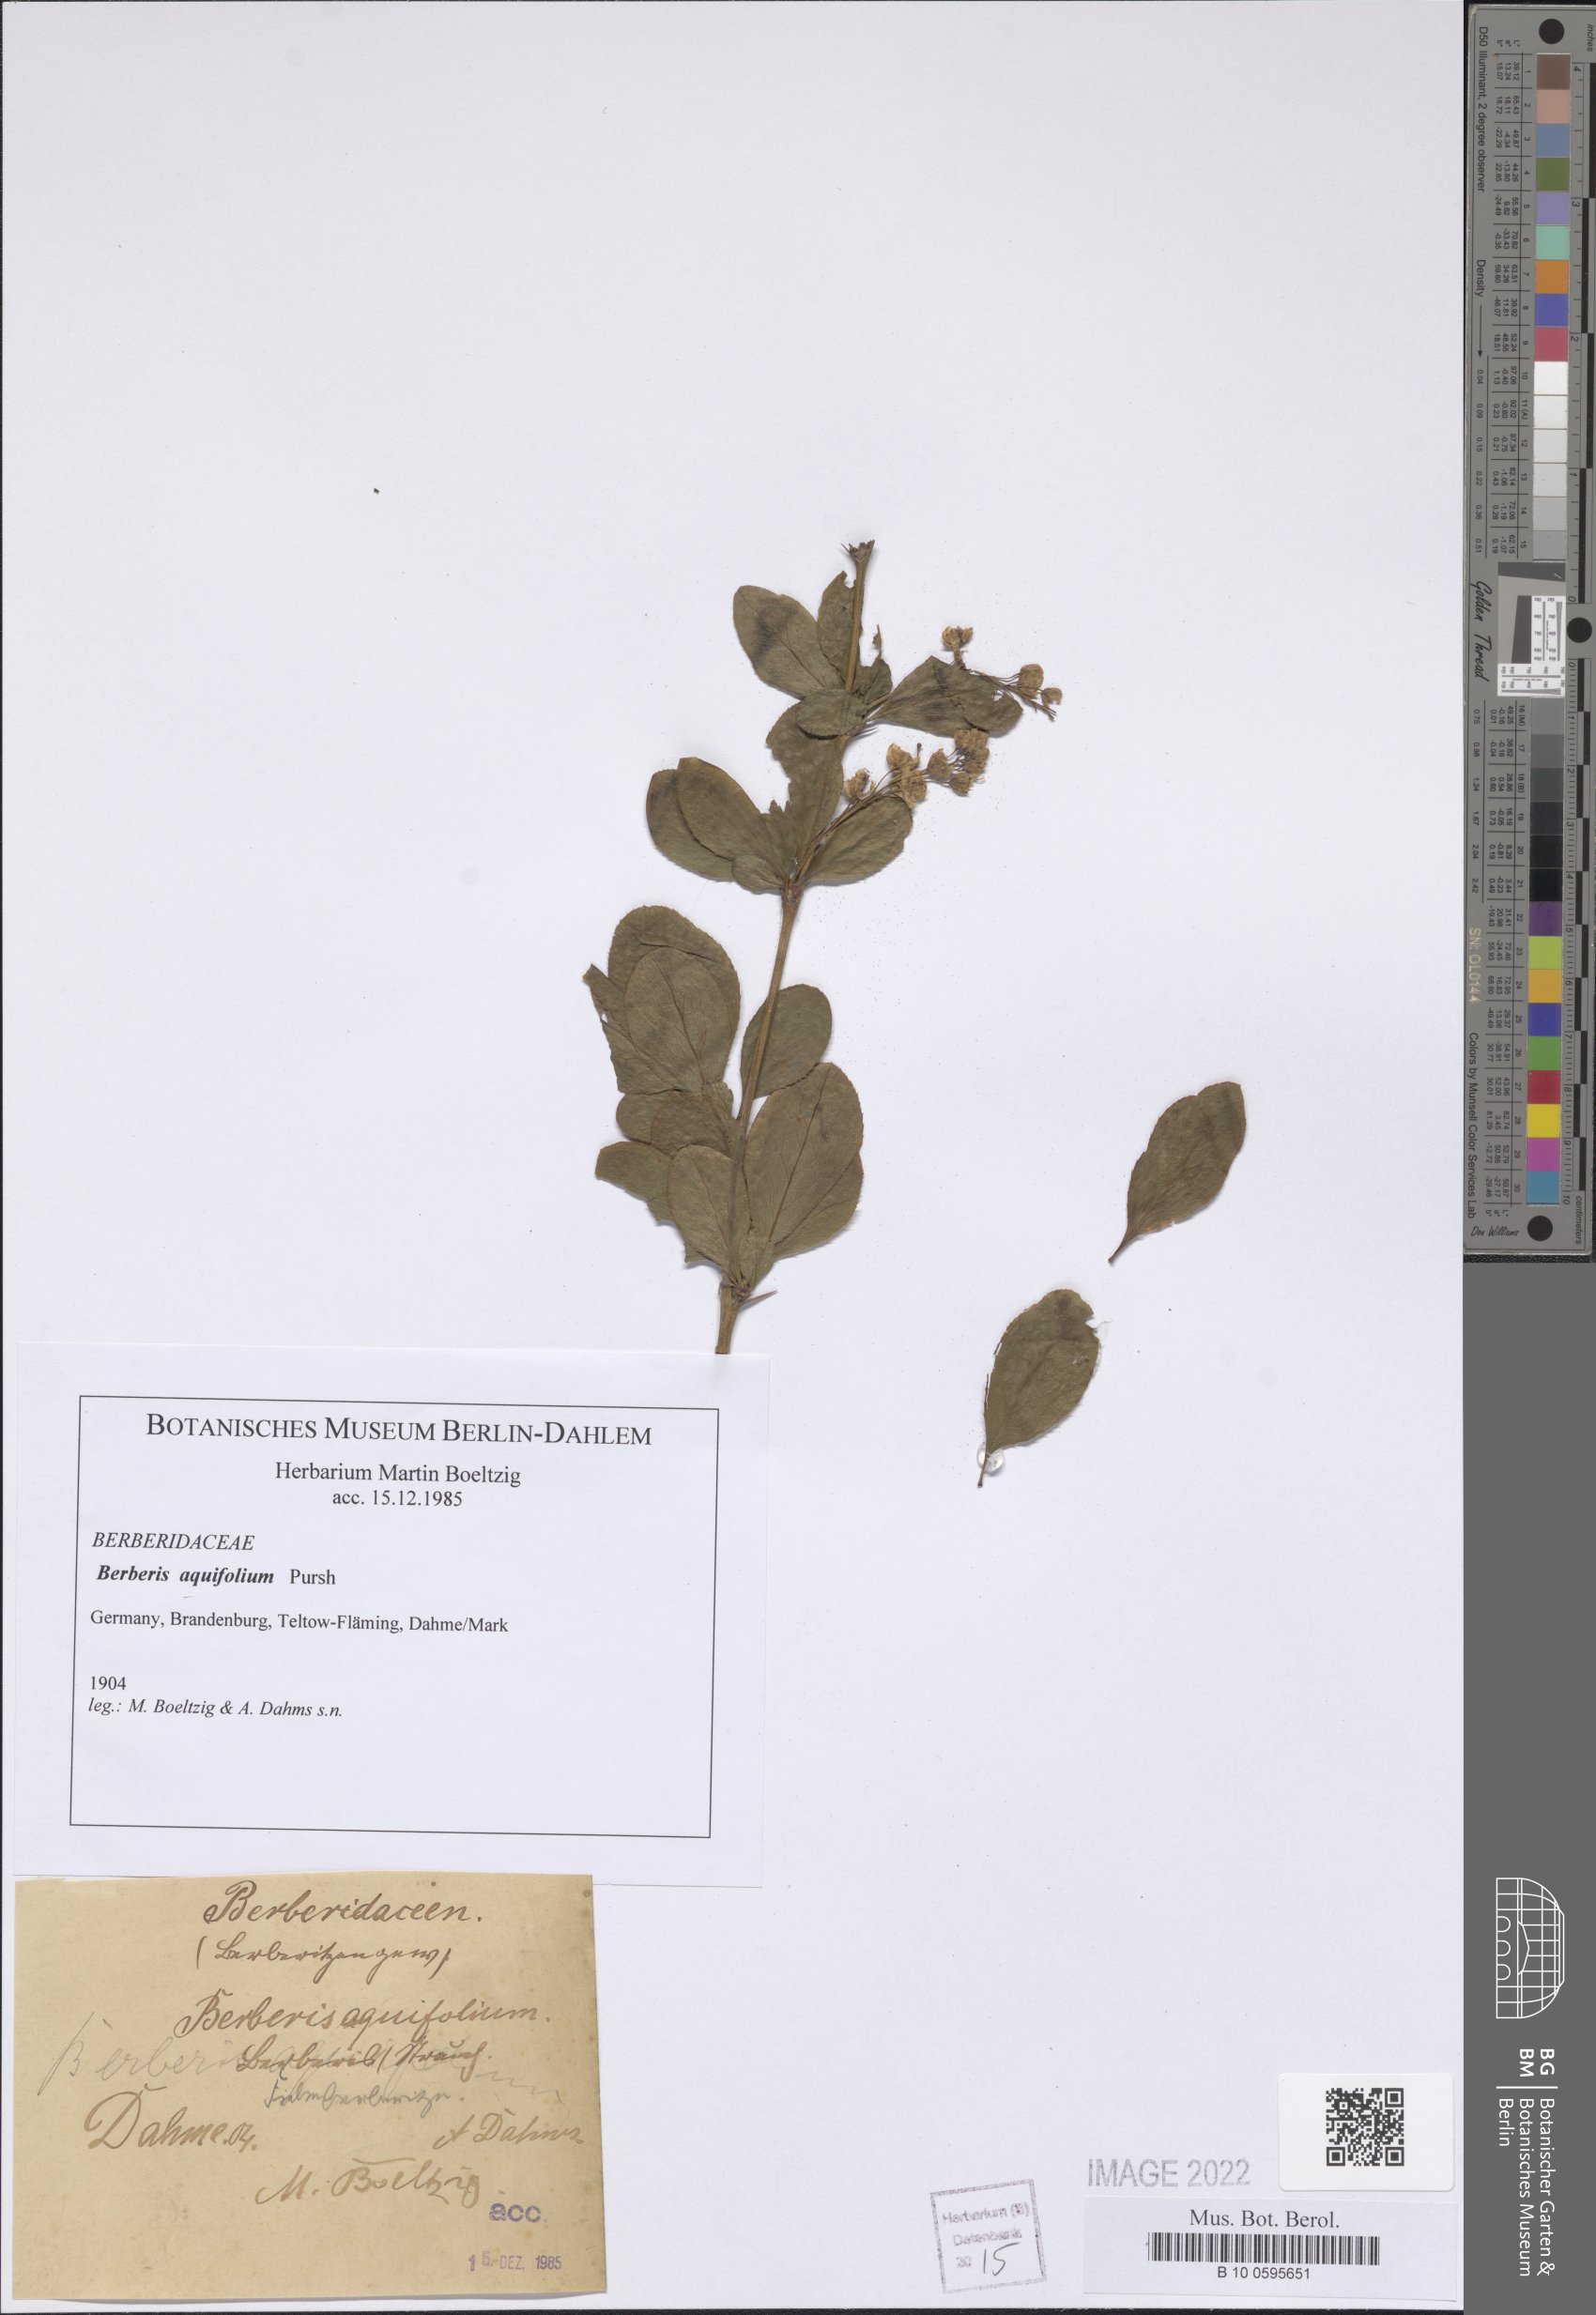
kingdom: Plantae
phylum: Tracheophyta
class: Magnoliopsida
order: Ranunculales
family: Berberidaceae
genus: Mahonia
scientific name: Mahonia aquifolium
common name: Oregon-grape
